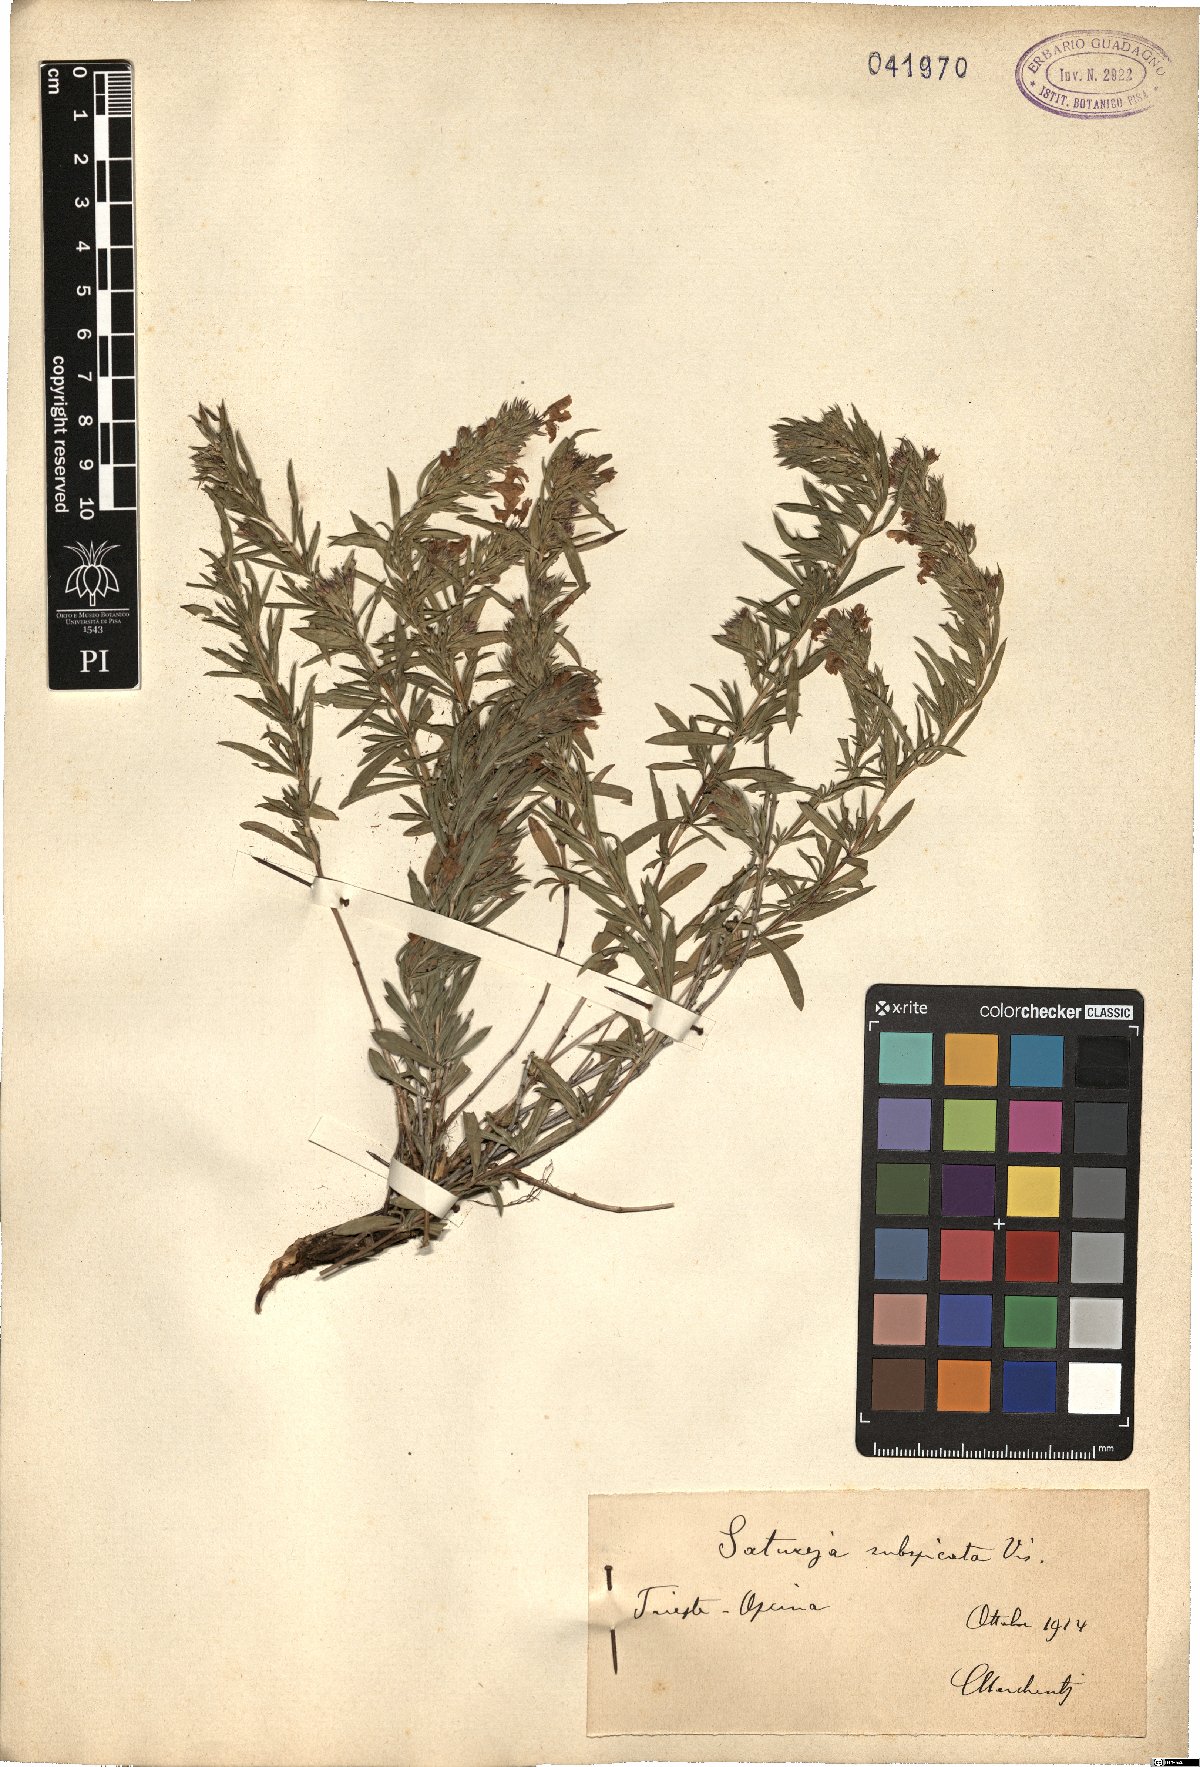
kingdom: Plantae
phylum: Tracheophyta
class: Magnoliopsida
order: Lamiales
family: Lamiaceae
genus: Satureja
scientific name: Satureja subspicata
